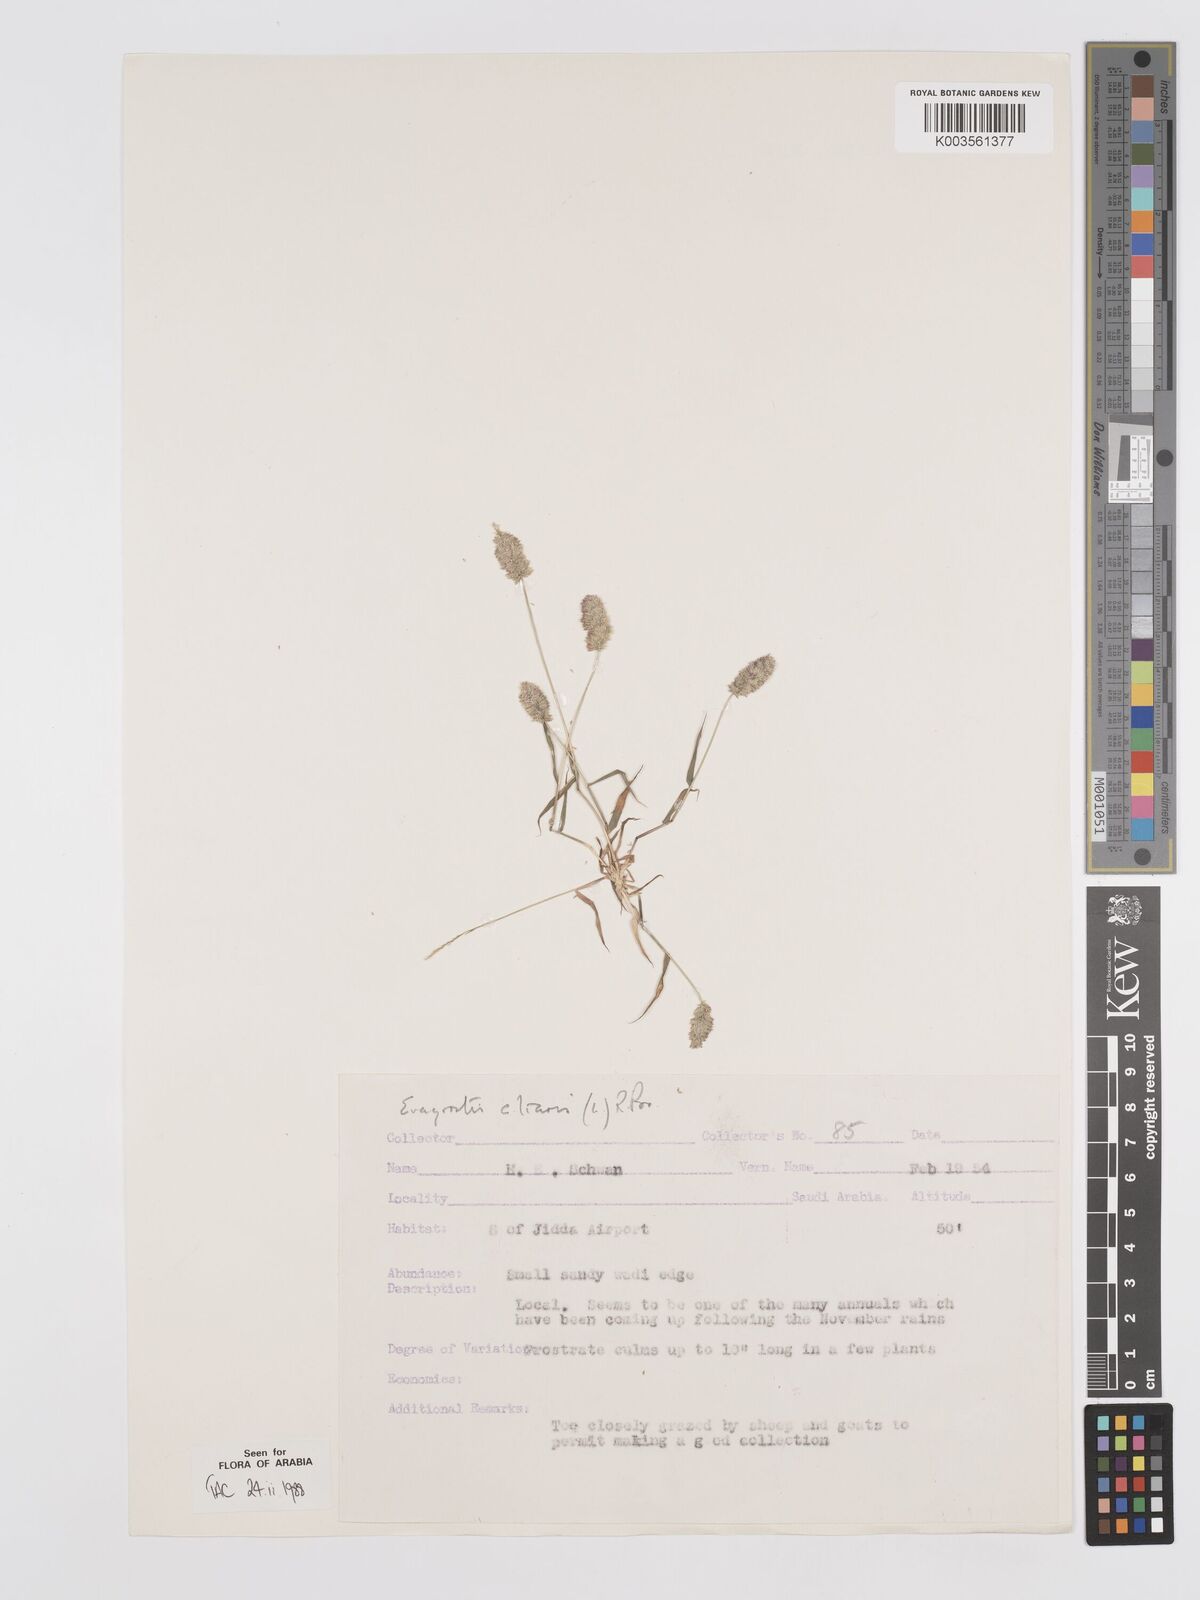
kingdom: Plantae
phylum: Tracheophyta
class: Liliopsida
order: Poales
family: Poaceae
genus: Eragrostis
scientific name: Eragrostis ciliaris
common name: Gophertail lovegrass
